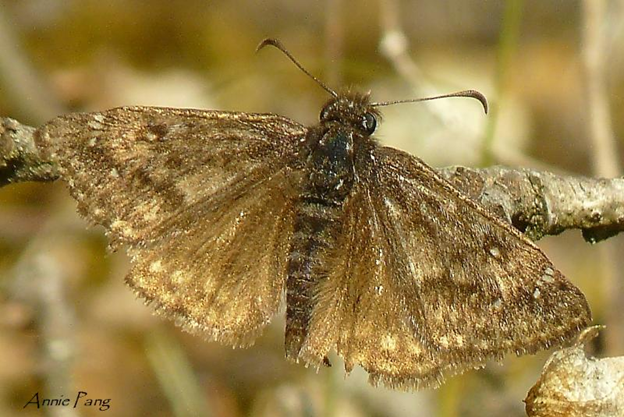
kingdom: Animalia
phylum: Arthropoda
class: Insecta
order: Lepidoptera
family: Hesperiidae
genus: Erynnis
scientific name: Erynnis propertius
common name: Propertius Duskywing
